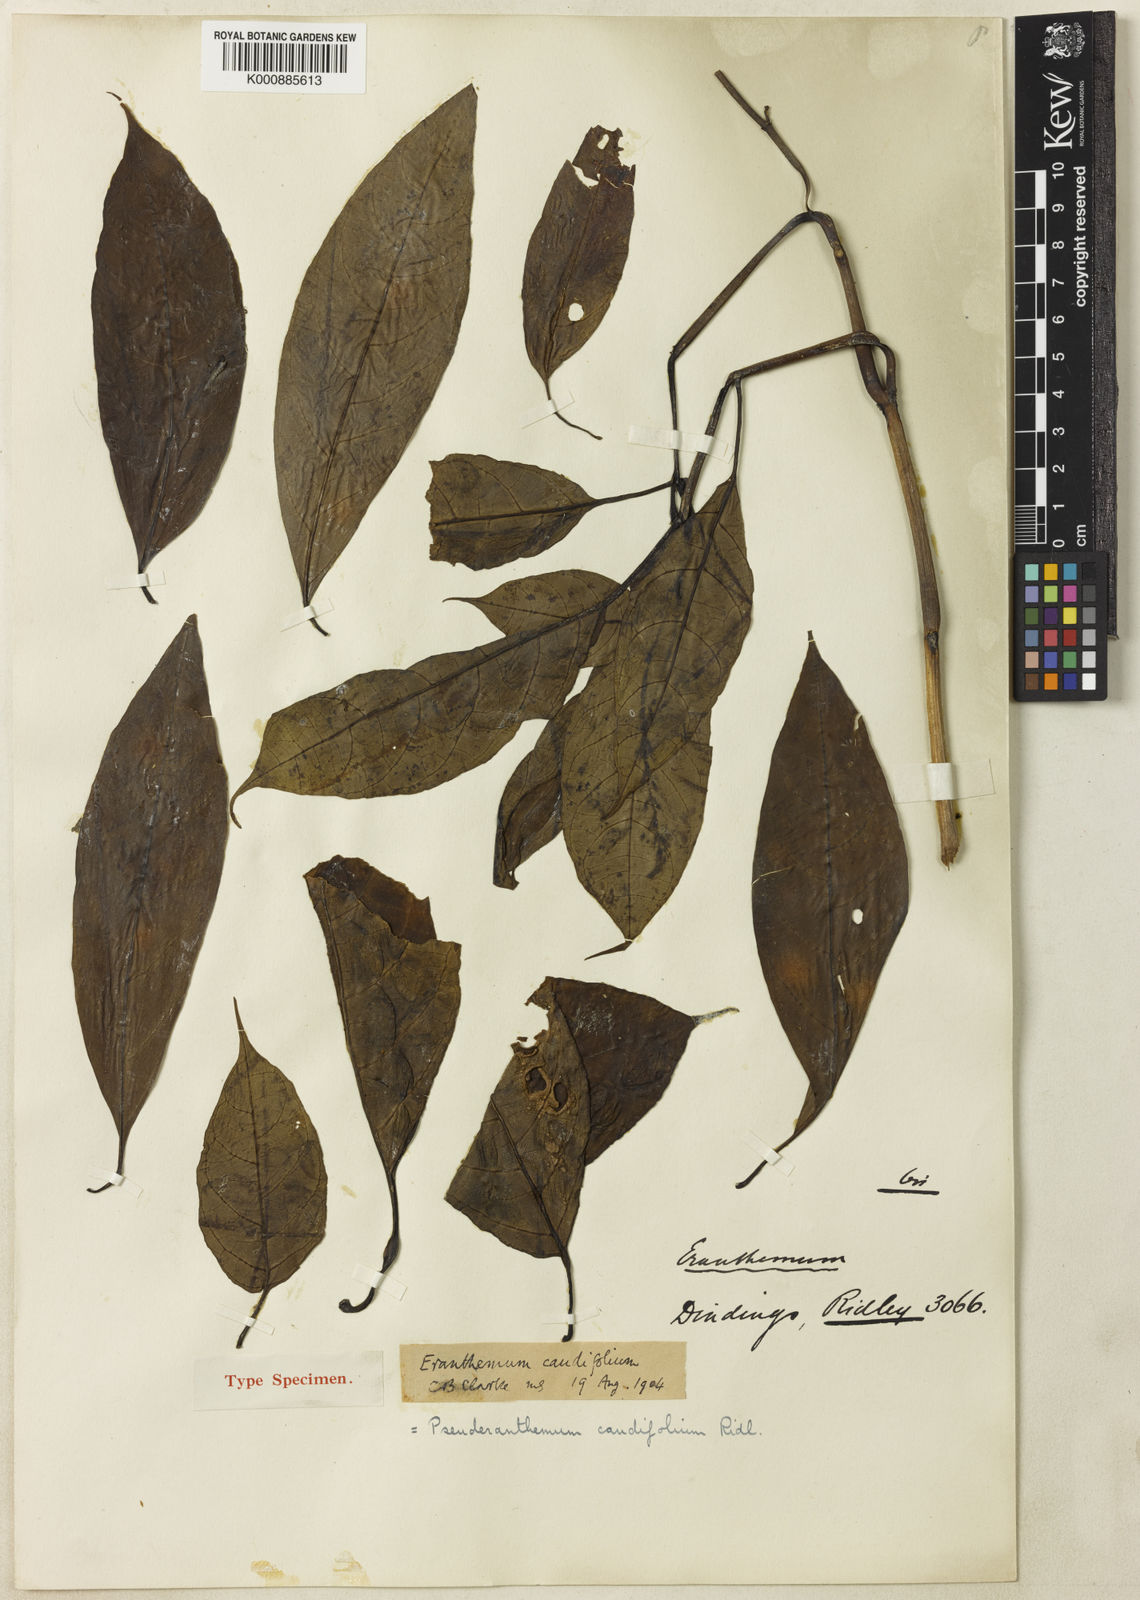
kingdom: Plantae
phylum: Tracheophyta
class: Magnoliopsida
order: Lamiales
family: Acanthaceae
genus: Pseuderanthemum
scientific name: Pseuderanthemum caudifolium
